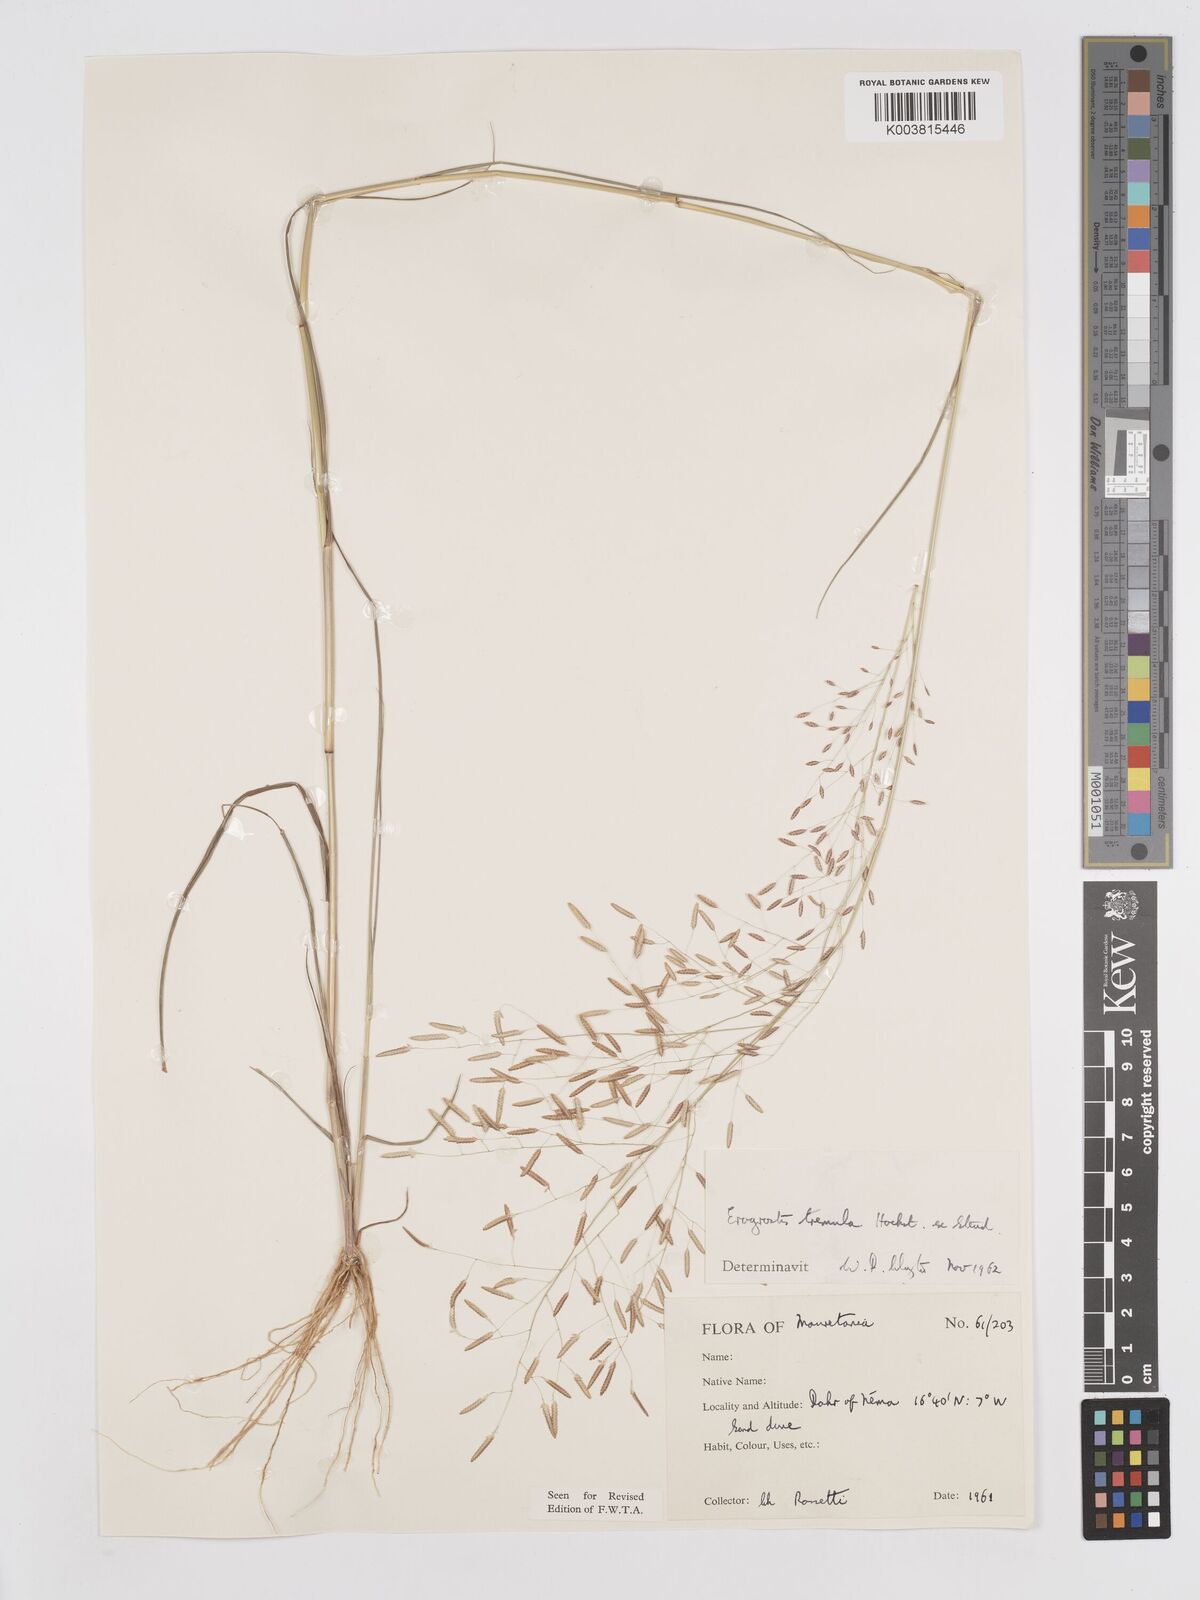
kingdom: Plantae
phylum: Tracheophyta
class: Liliopsida
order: Poales
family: Poaceae
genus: Eragrostis
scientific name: Eragrostis tremula
